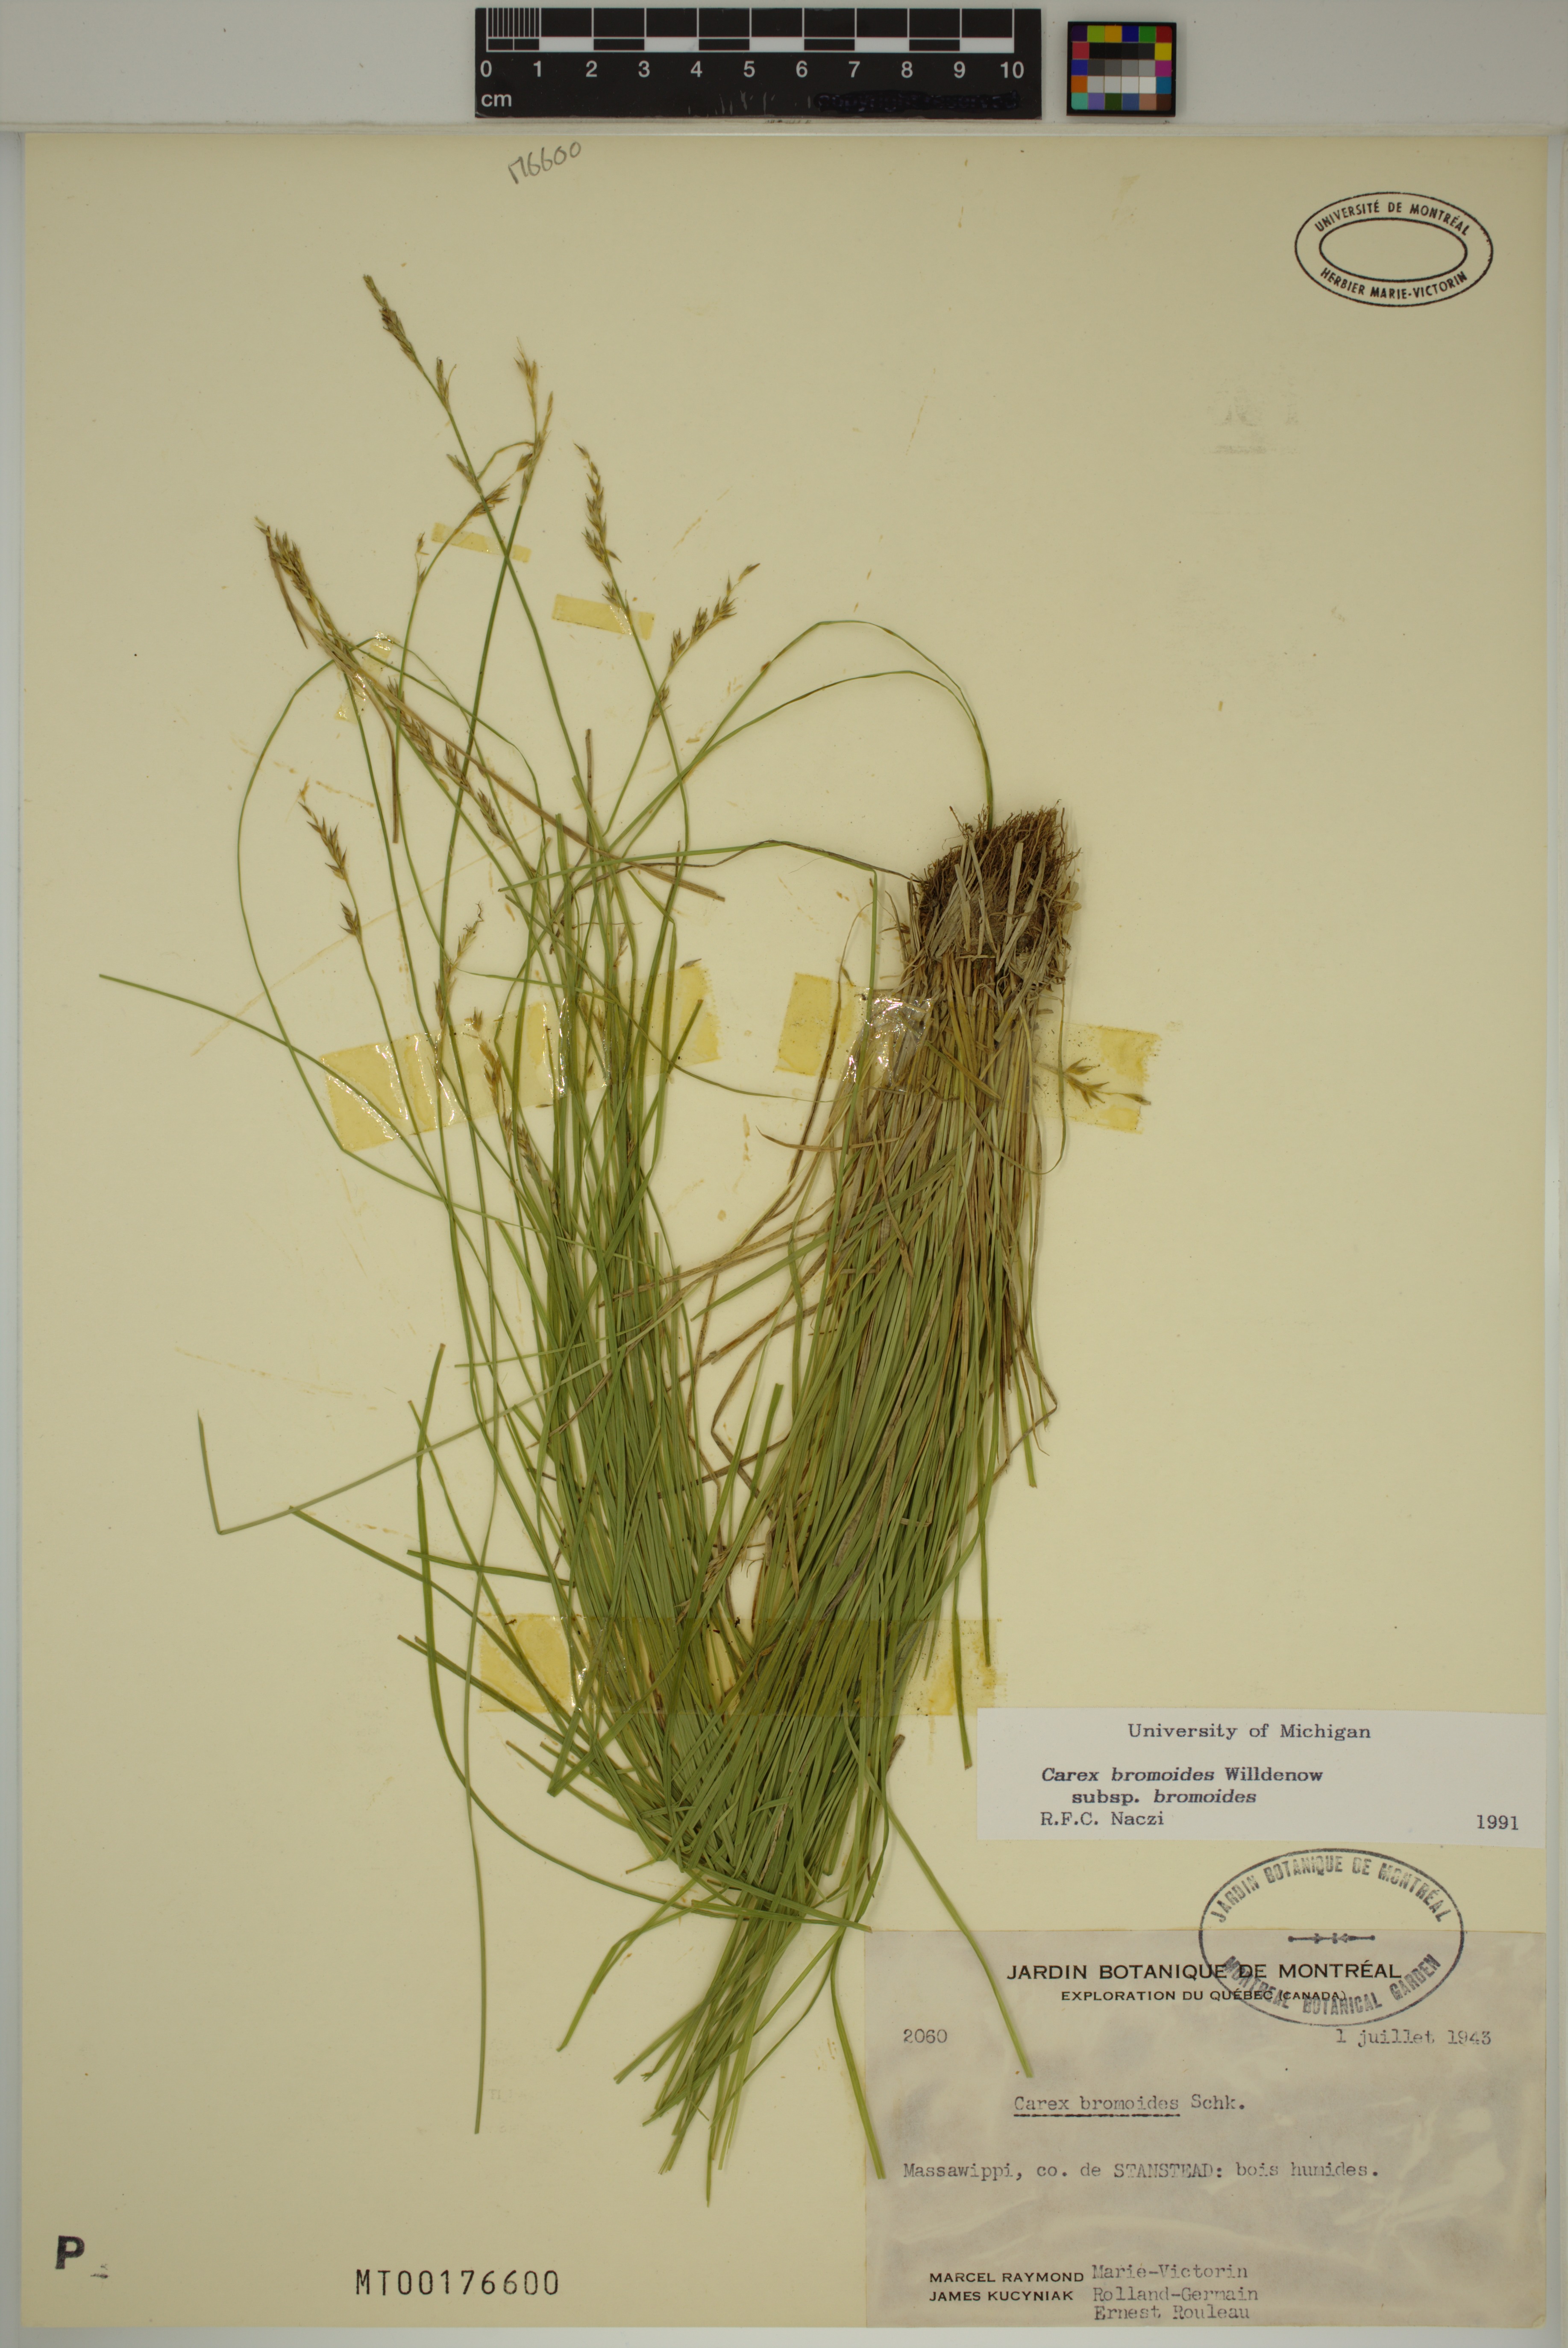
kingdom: Plantae
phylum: Tracheophyta
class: Liliopsida
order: Poales
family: Cyperaceae
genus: Carex
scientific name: Carex bromoides
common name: Brome hummock sedge
